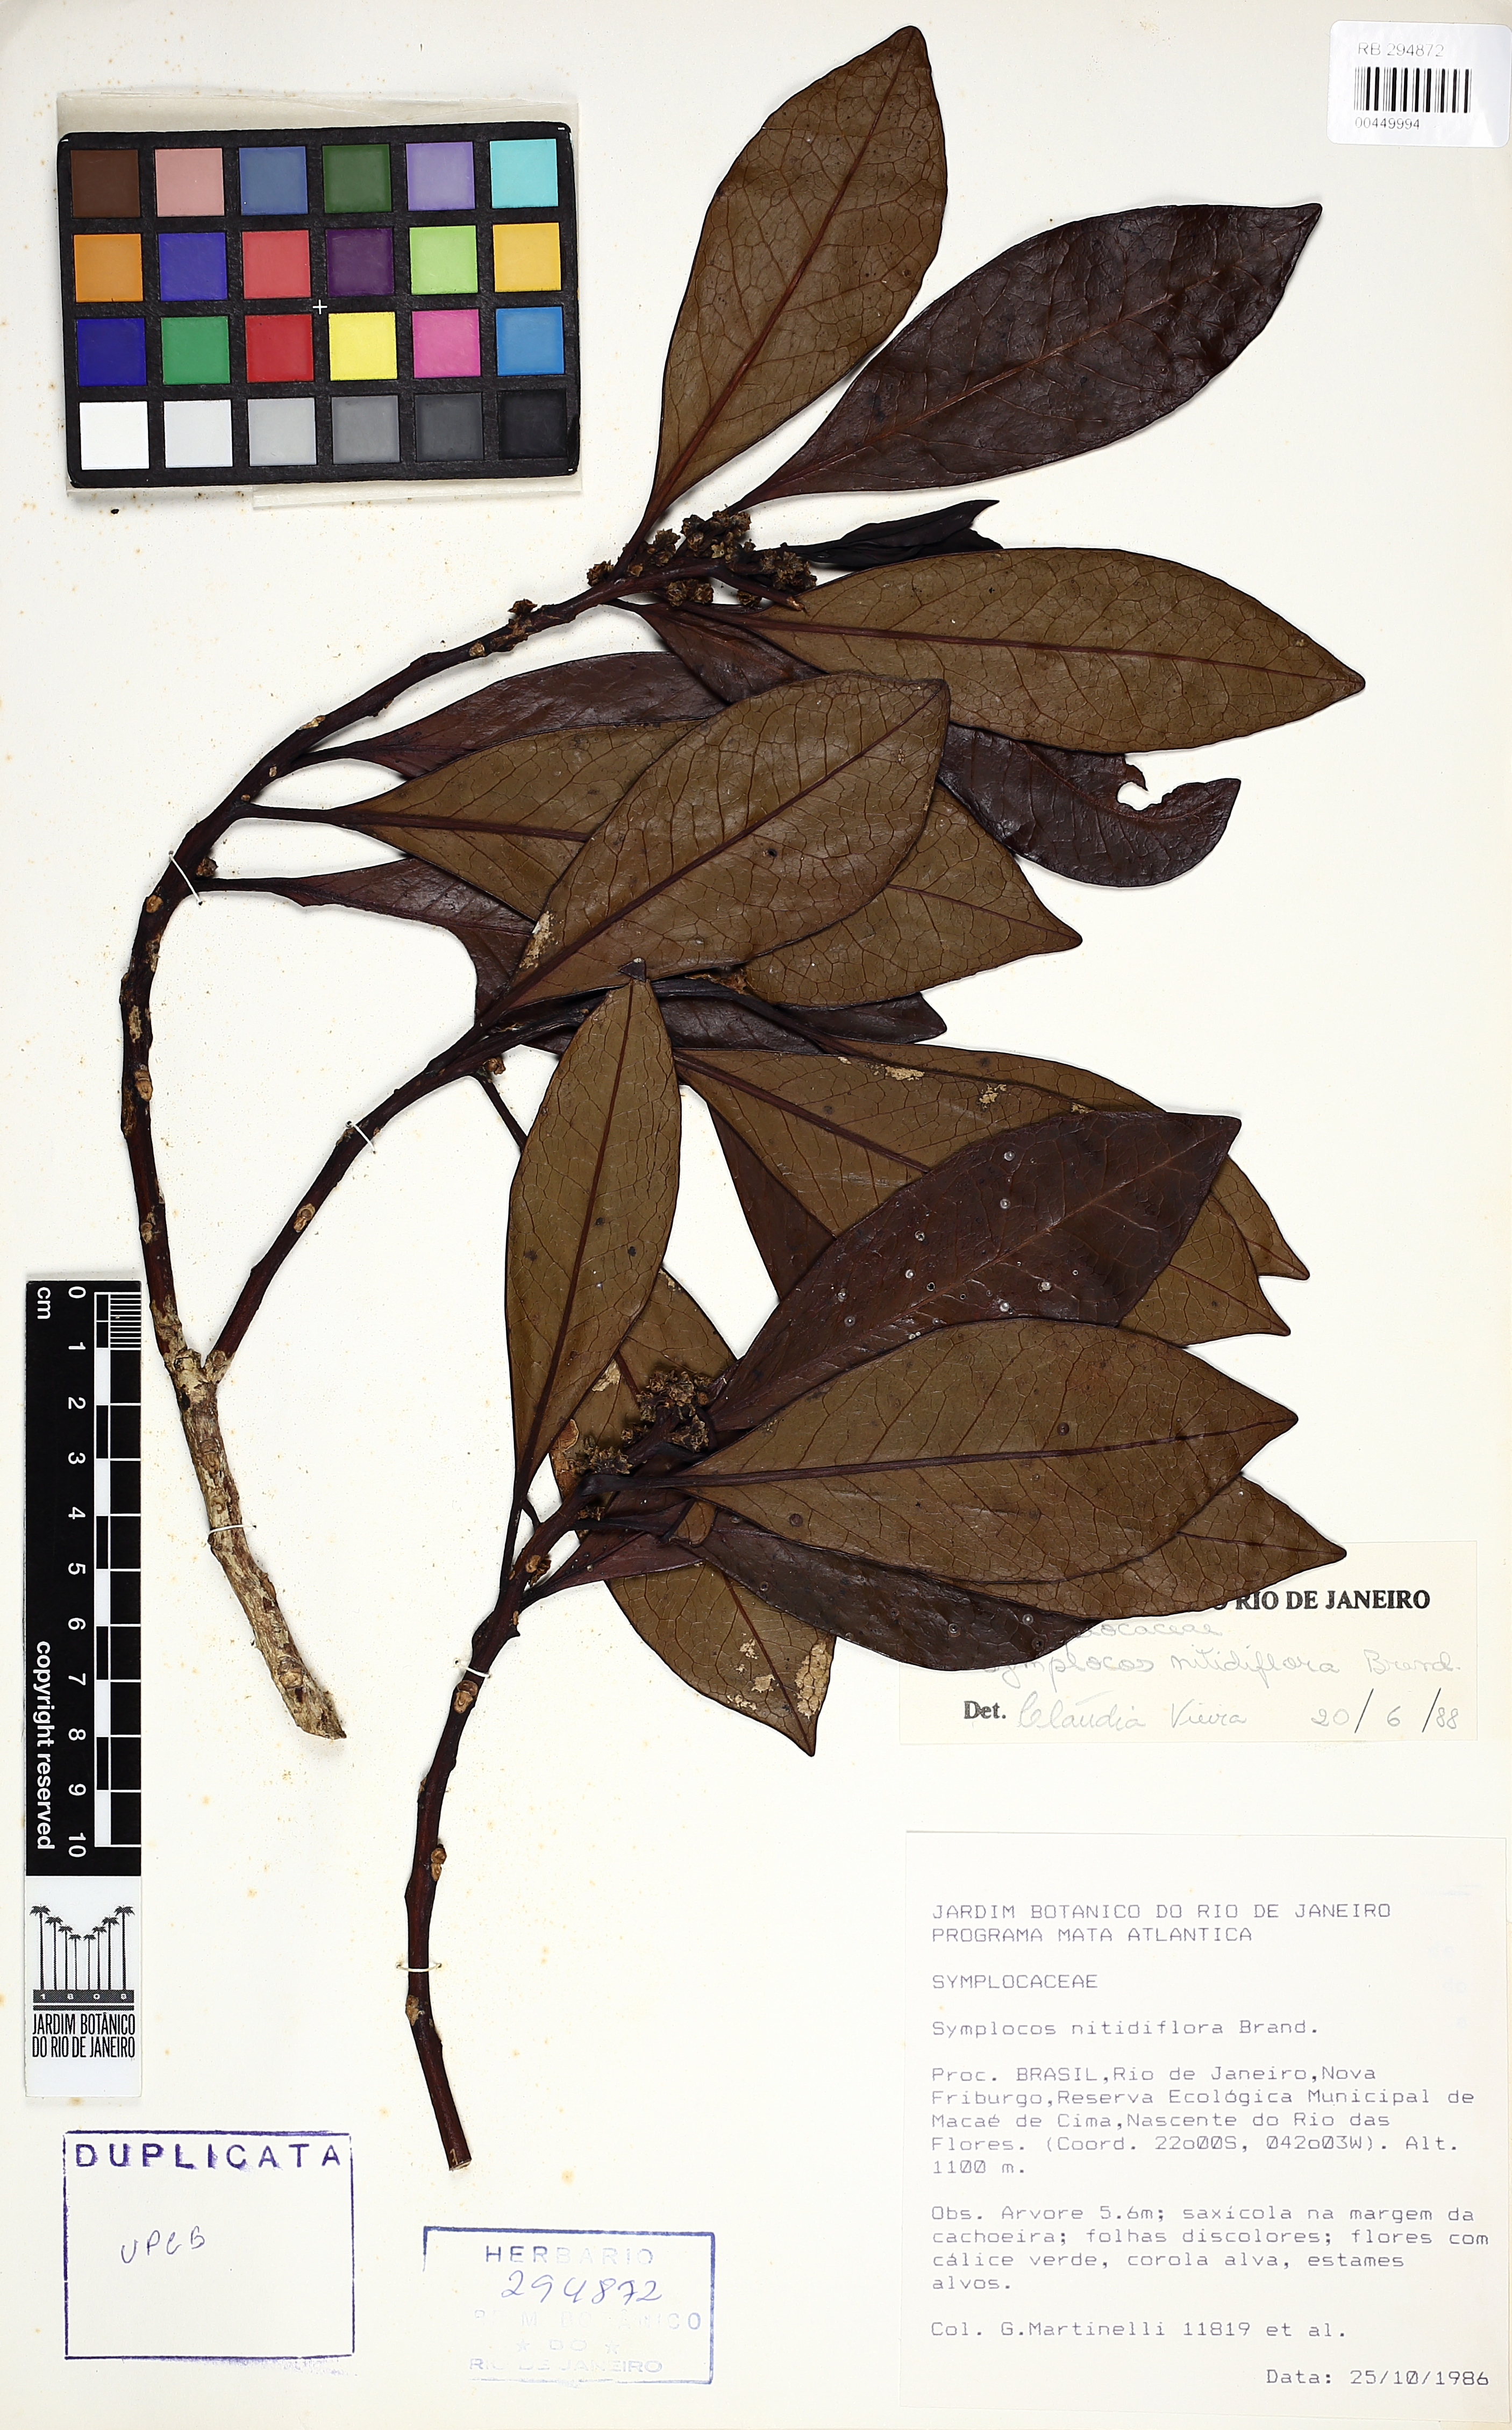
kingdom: Plantae
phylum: Tracheophyta
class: Magnoliopsida
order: Ericales
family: Symplocaceae
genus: Symplocos
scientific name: Symplocos nitidiflora
